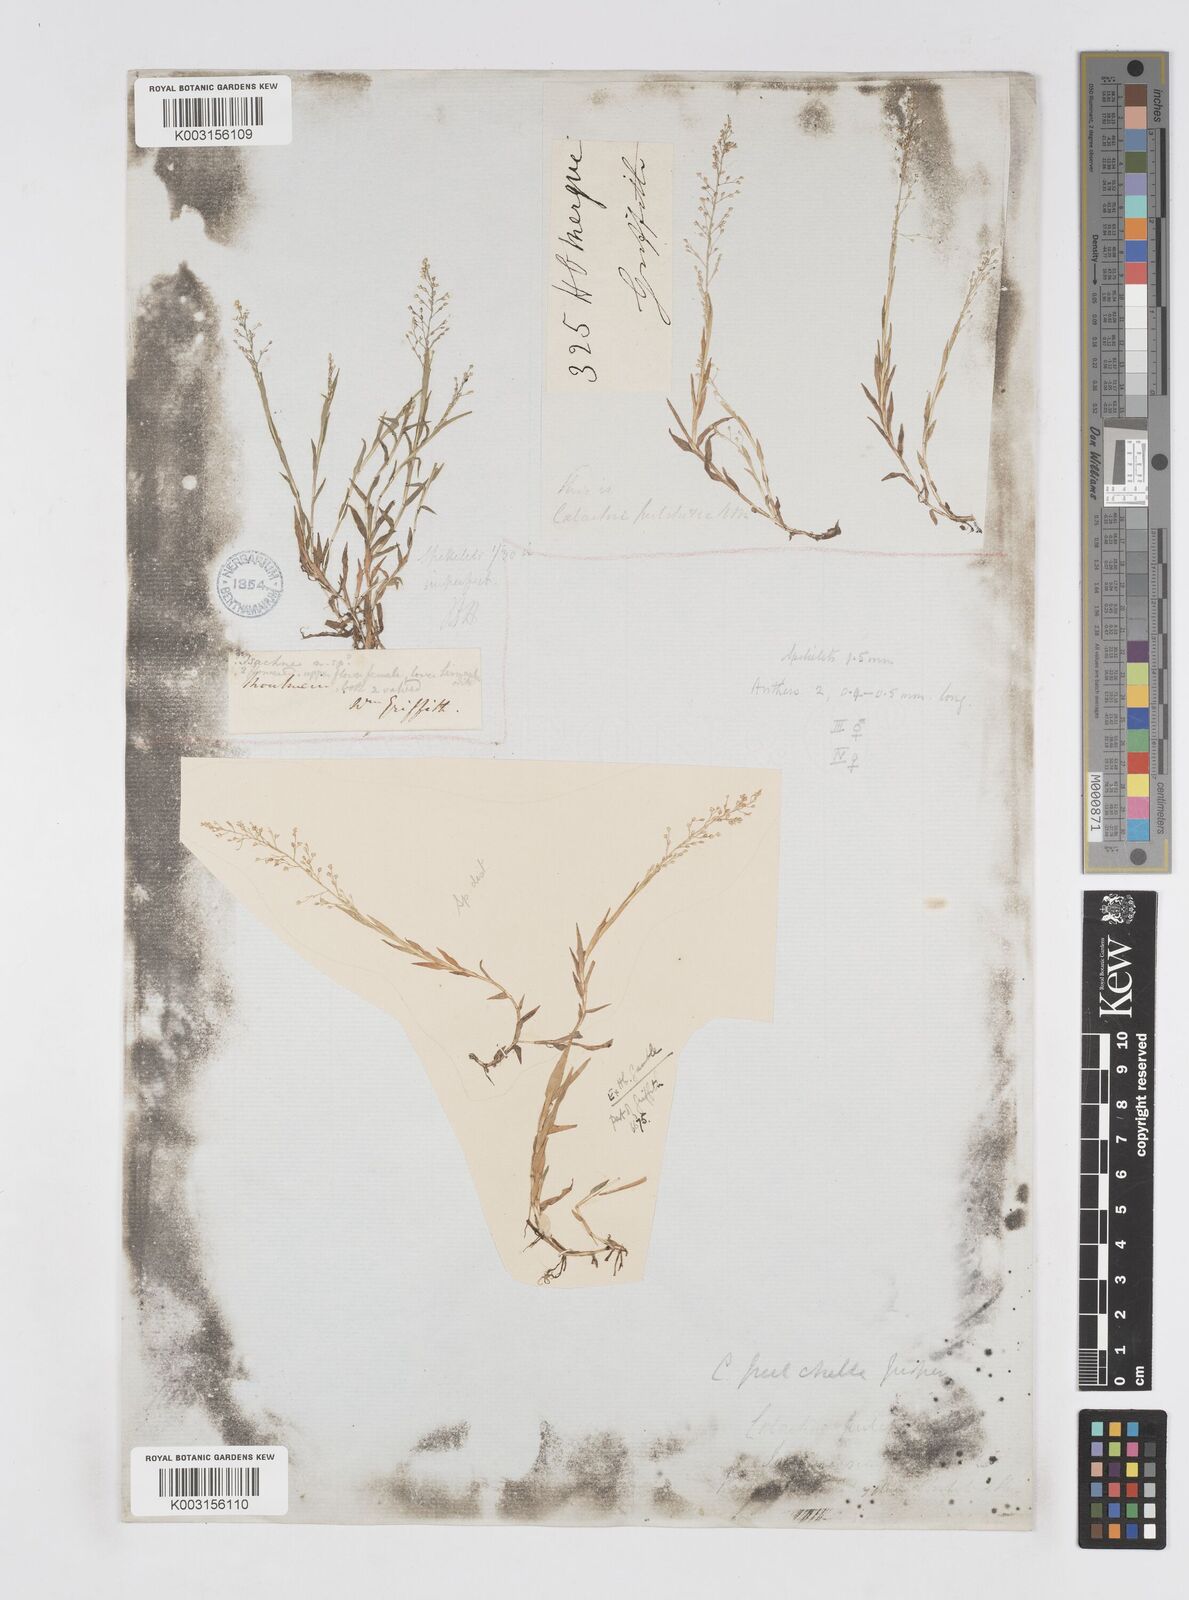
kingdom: Plantae
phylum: Tracheophyta
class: Liliopsida
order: Poales
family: Poaceae
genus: Coelachne
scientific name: Coelachne simpliciuscula
